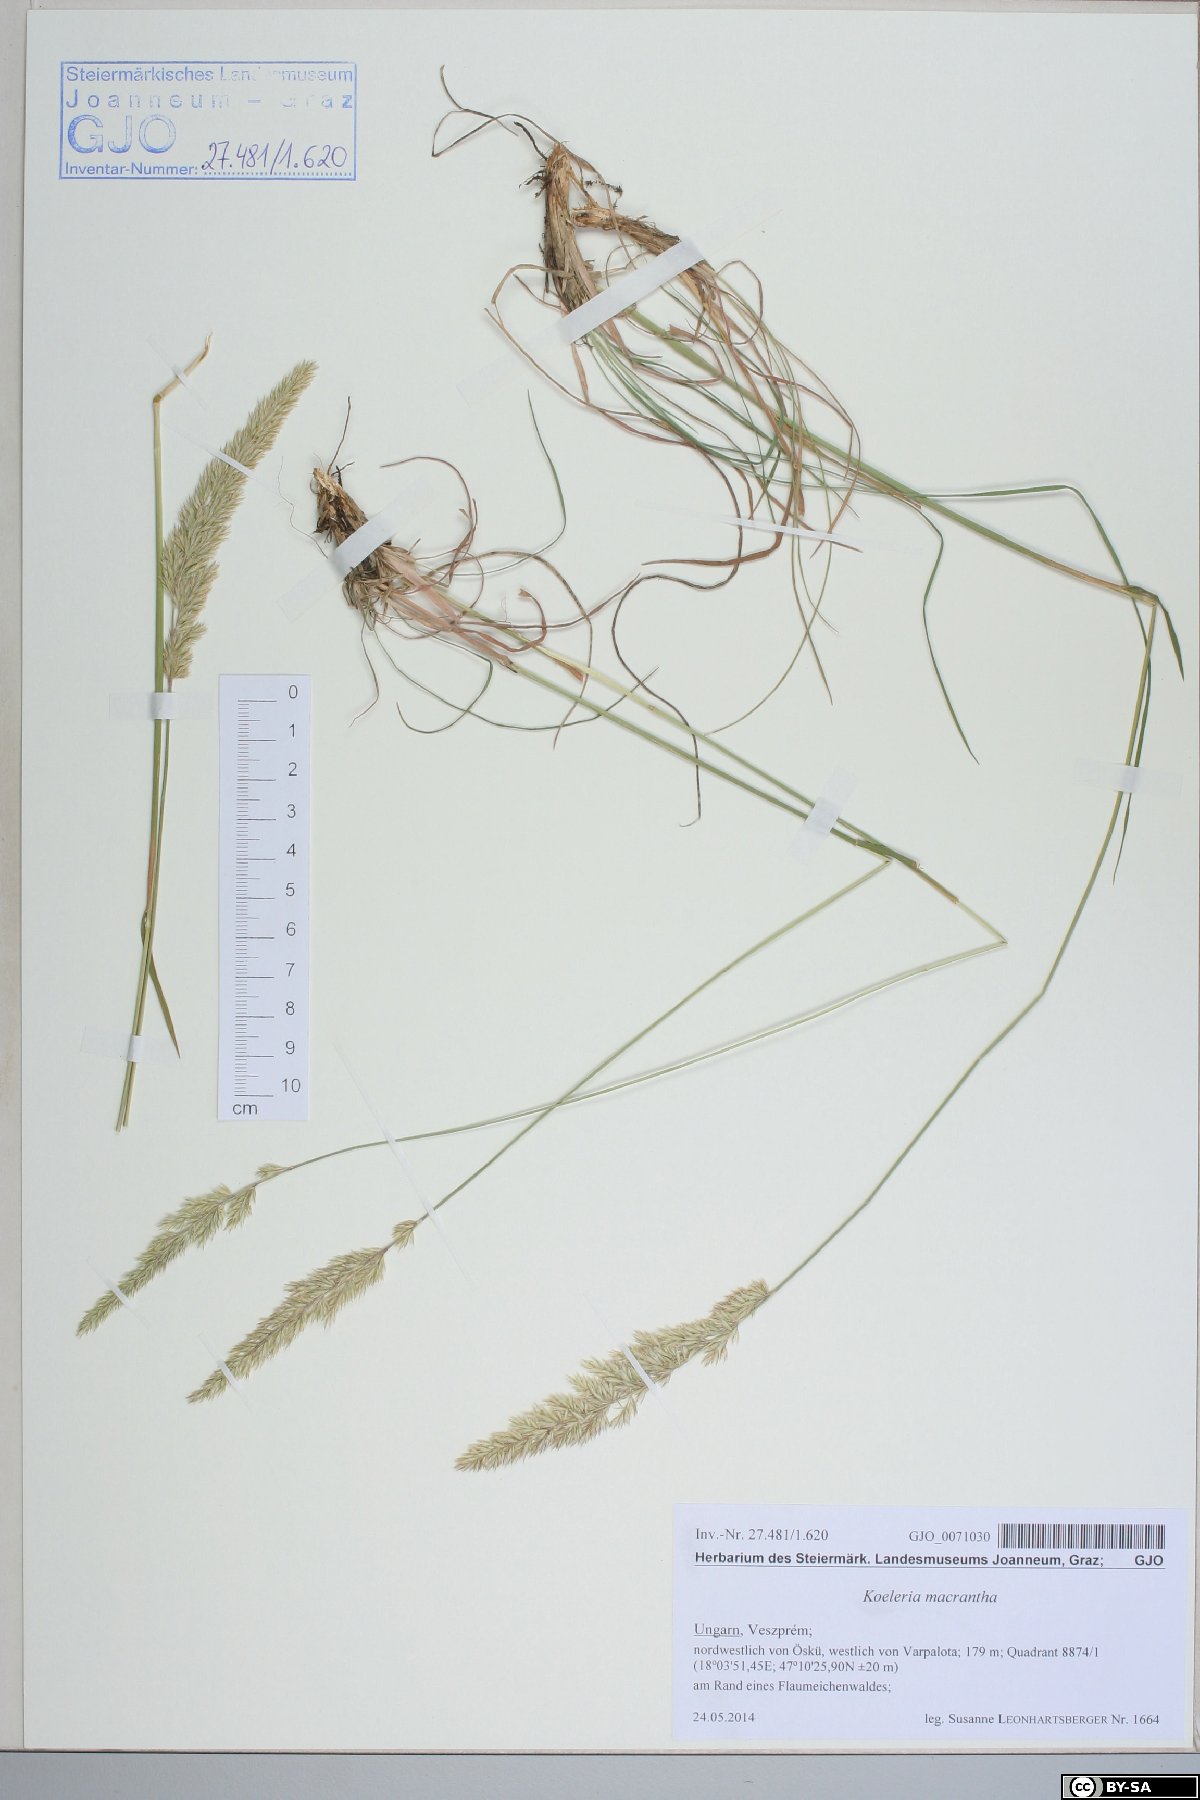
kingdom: Plantae
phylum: Tracheophyta
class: Liliopsida
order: Poales
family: Poaceae
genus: Koeleria
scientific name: Koeleria macrantha
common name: Crested hair-grass
